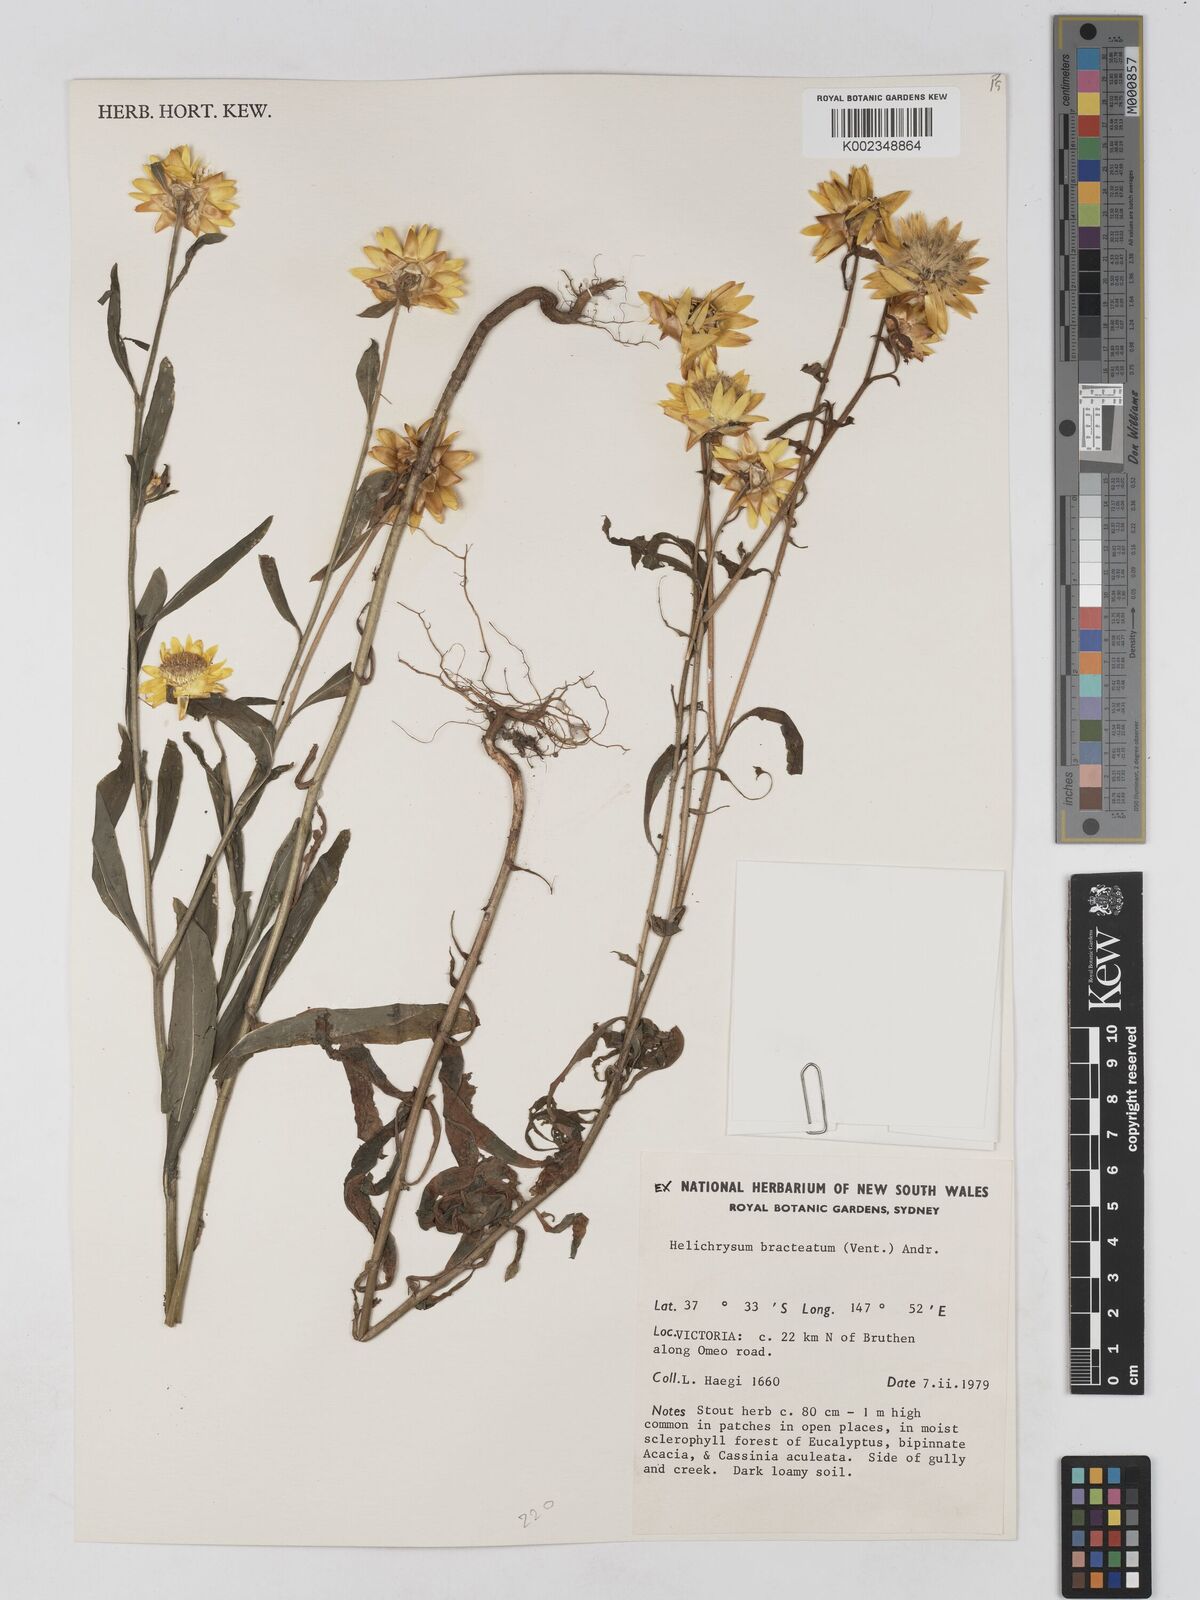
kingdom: Plantae
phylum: Tracheophyta
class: Magnoliopsida
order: Asterales
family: Asteraceae
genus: Xerochrysum
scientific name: Xerochrysum bracteatum
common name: Bracted strawflower
